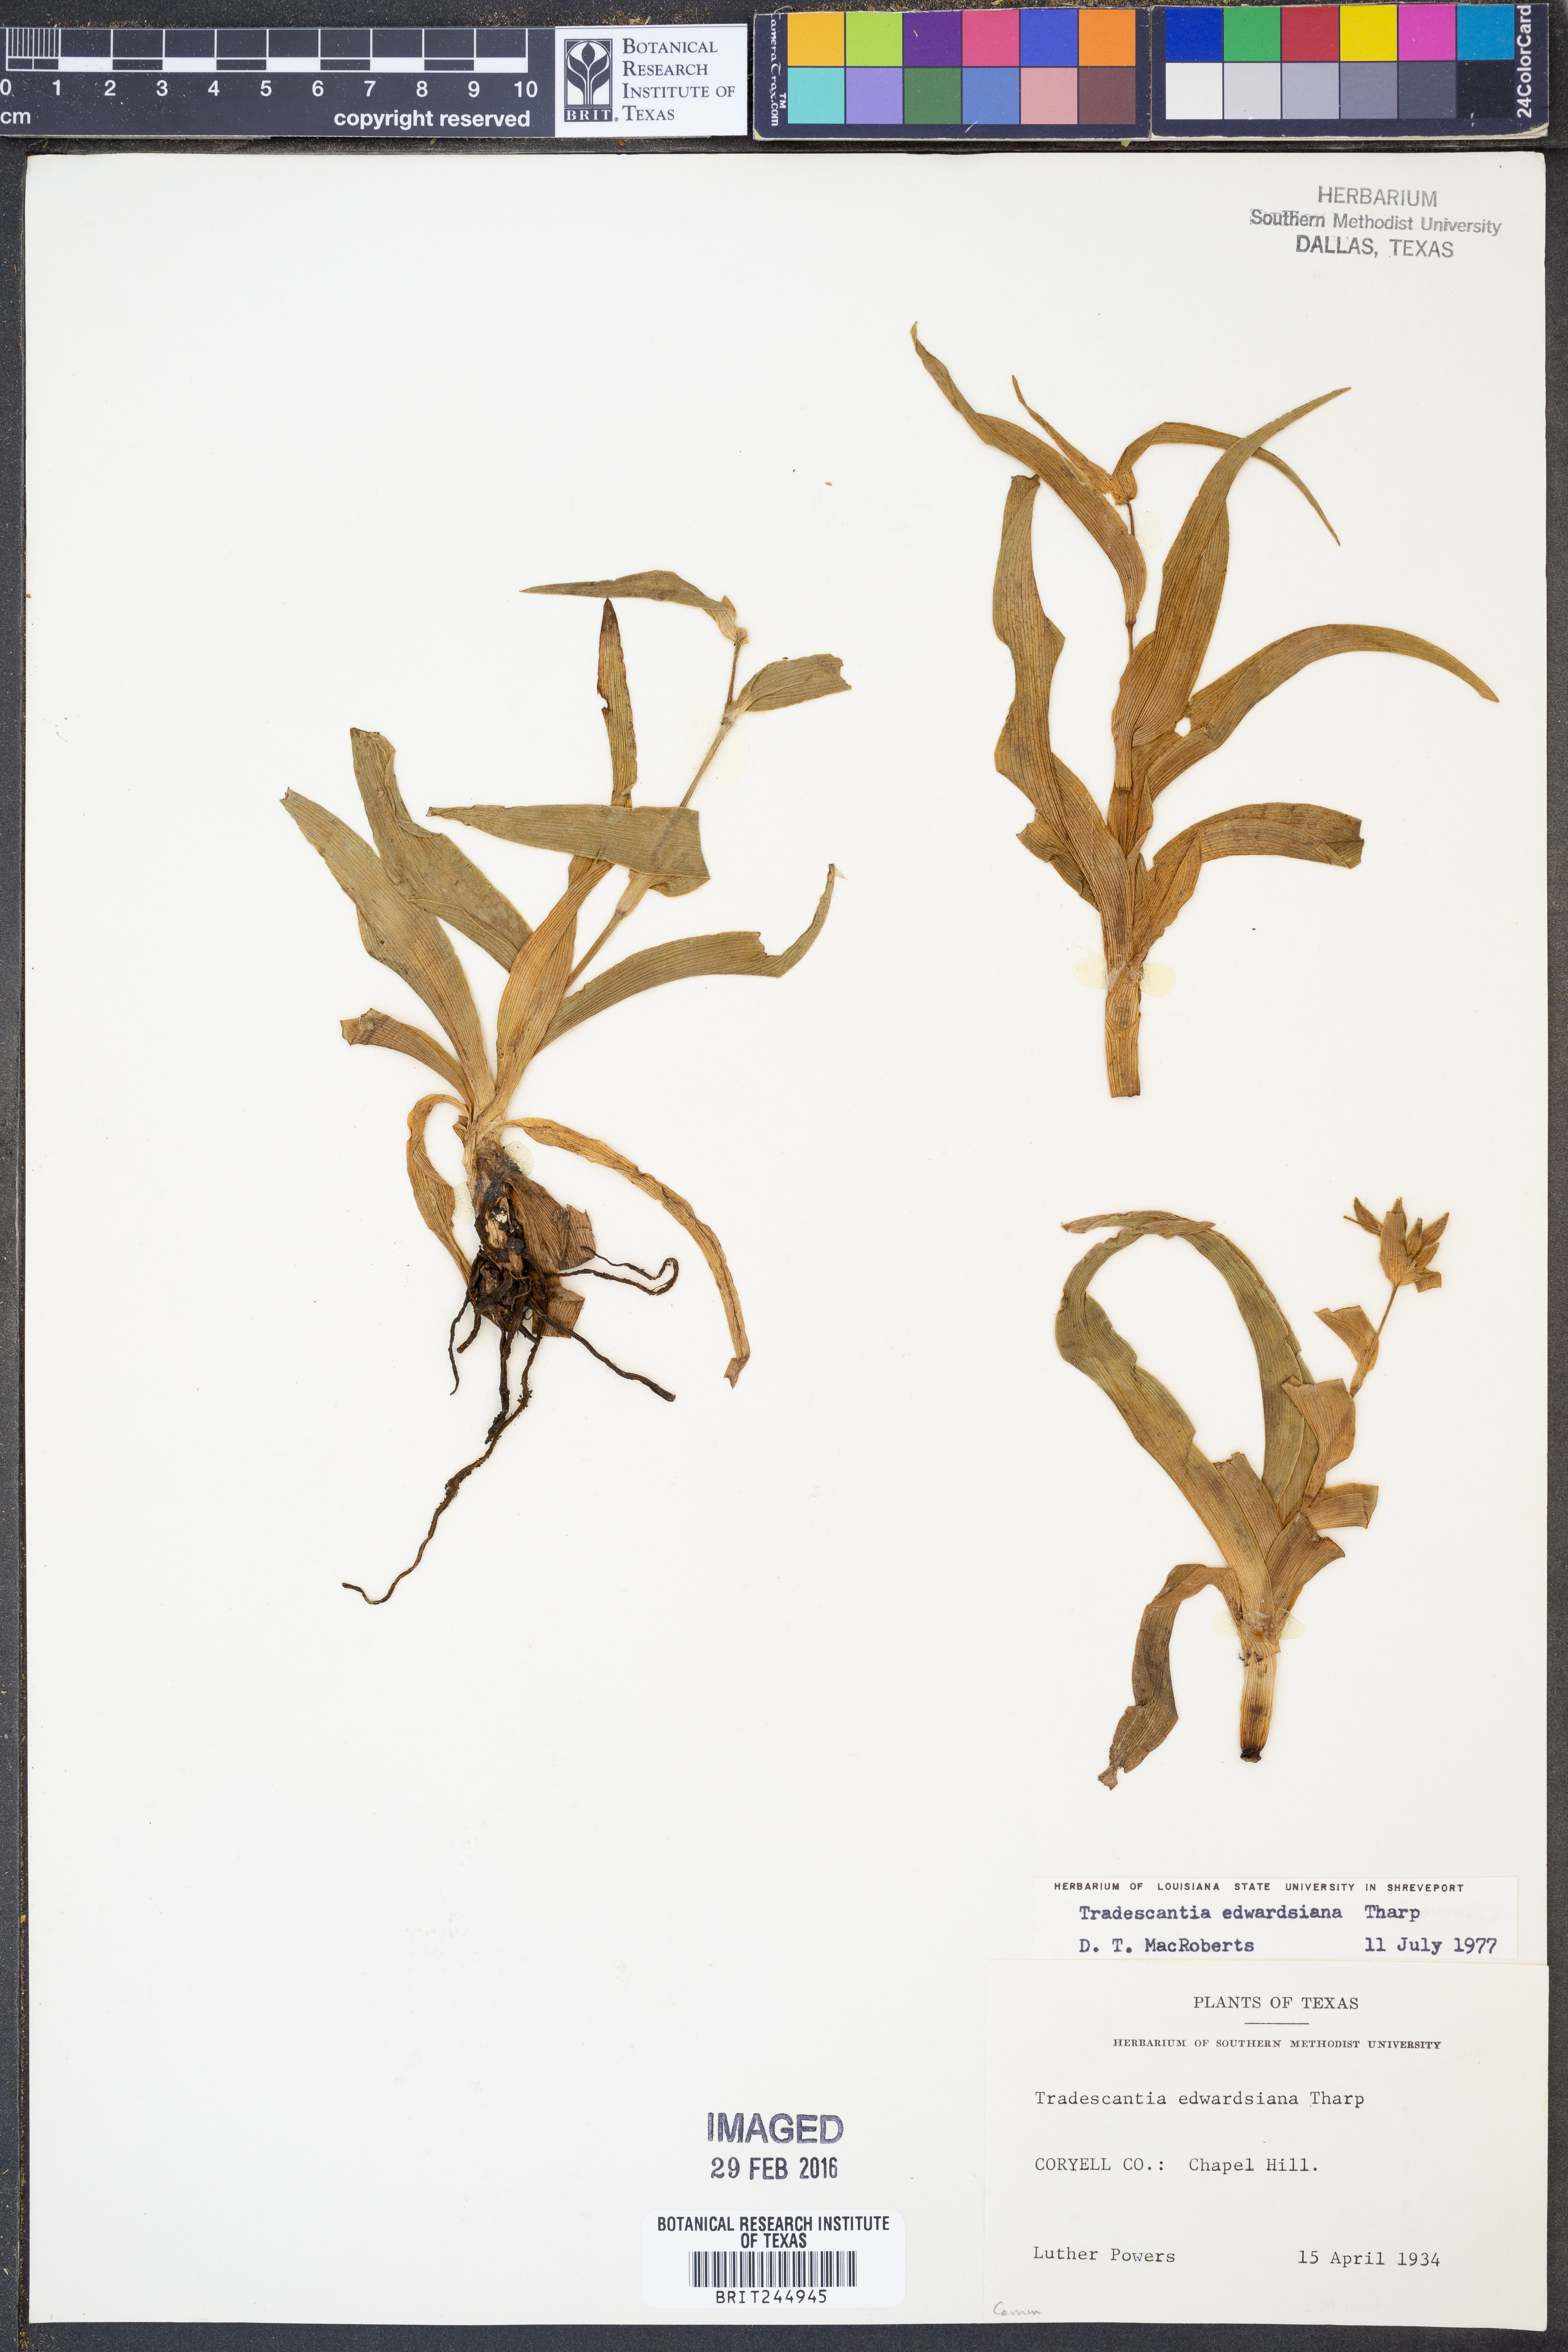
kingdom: Plantae
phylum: Tracheophyta
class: Liliopsida
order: Commelinales
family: Commelinaceae
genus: Tradescantia
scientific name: Tradescantia edwardsiana
